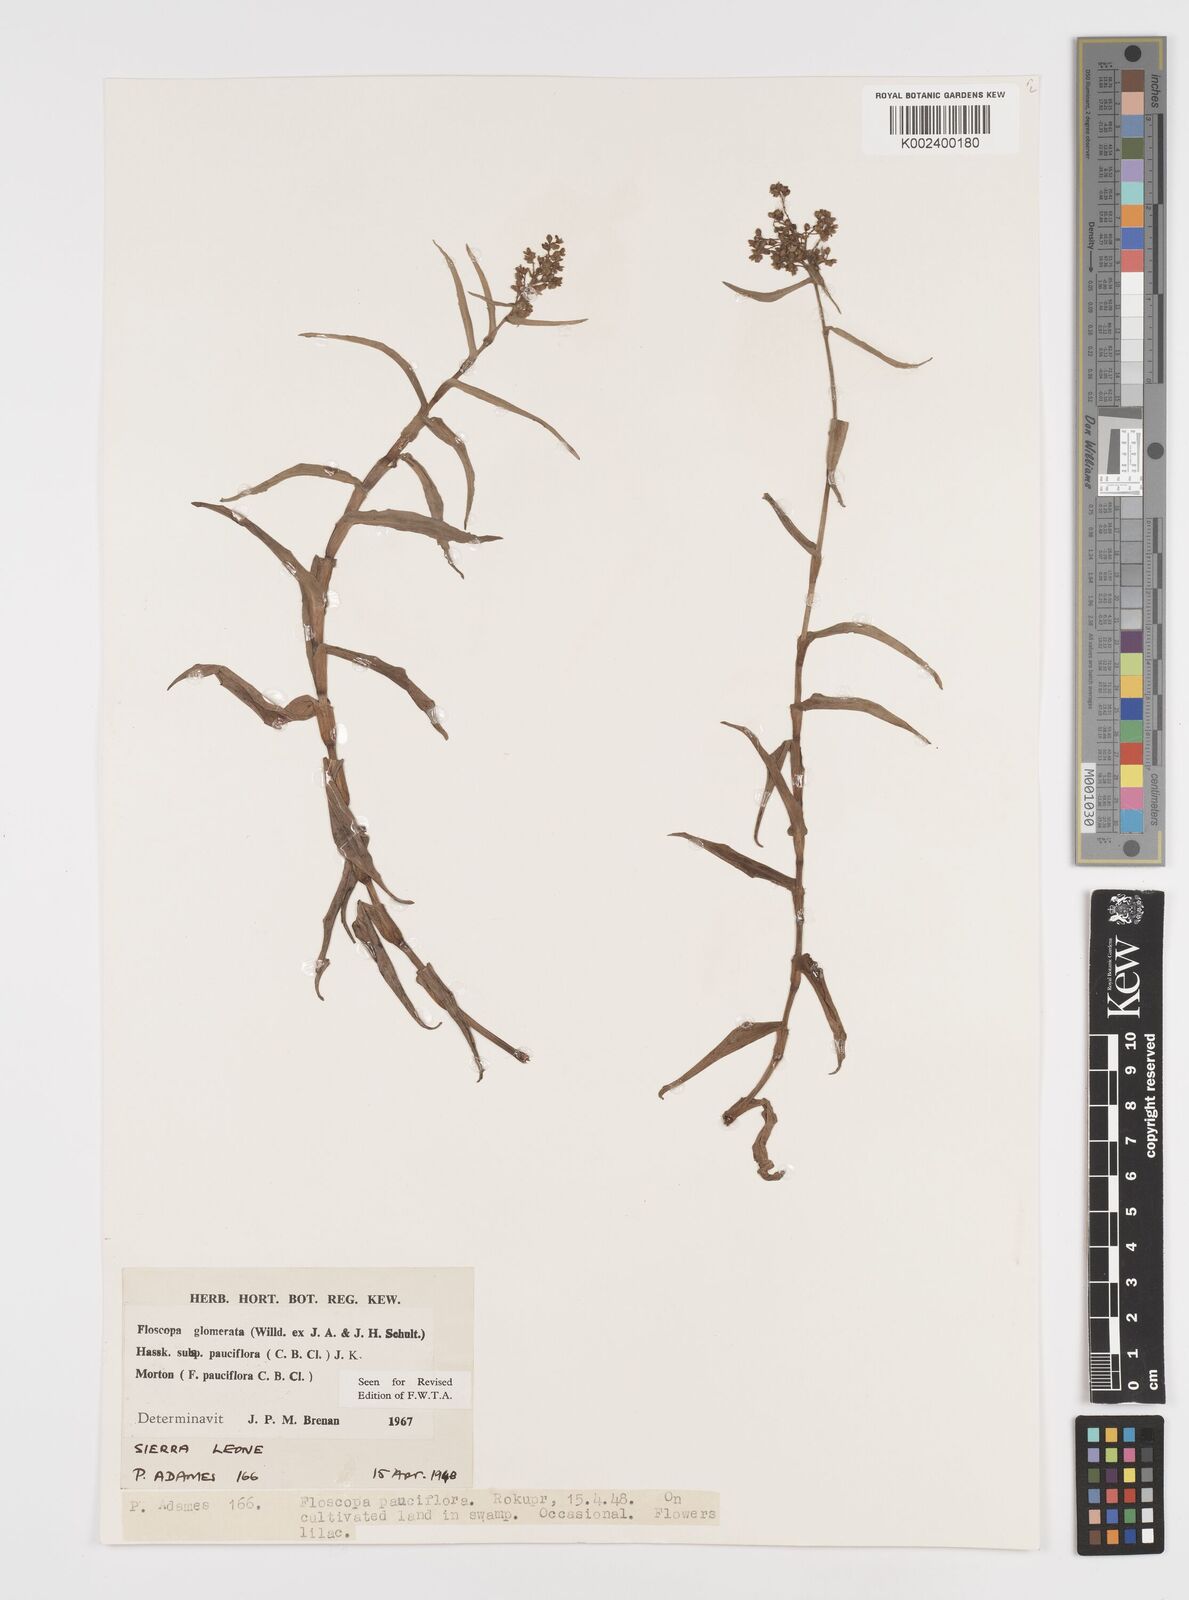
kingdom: Plantae
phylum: Tracheophyta
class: Liliopsida
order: Commelinales
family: Commelinaceae
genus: Floscopa
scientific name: Floscopa glomerata
